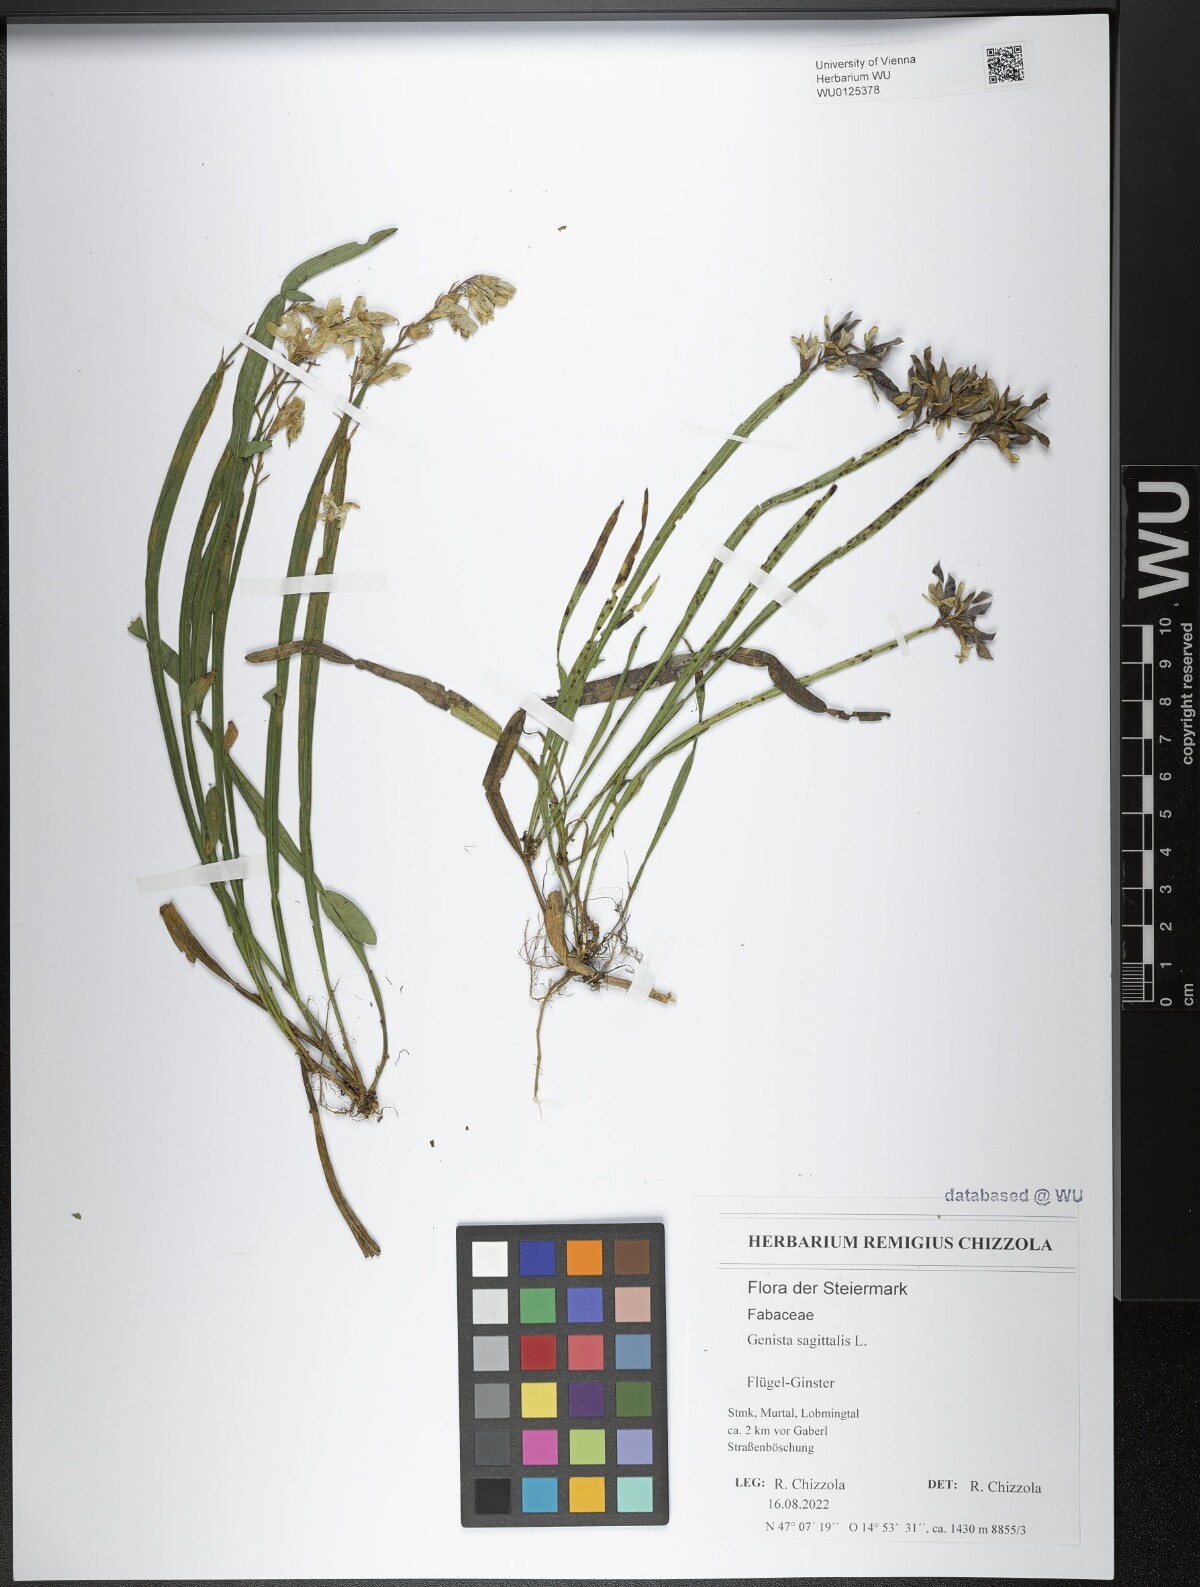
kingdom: Plantae
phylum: Tracheophyta
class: Magnoliopsida
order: Fabales
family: Fabaceae
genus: Genista
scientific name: Genista sagittalis
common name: Winged greenweed
